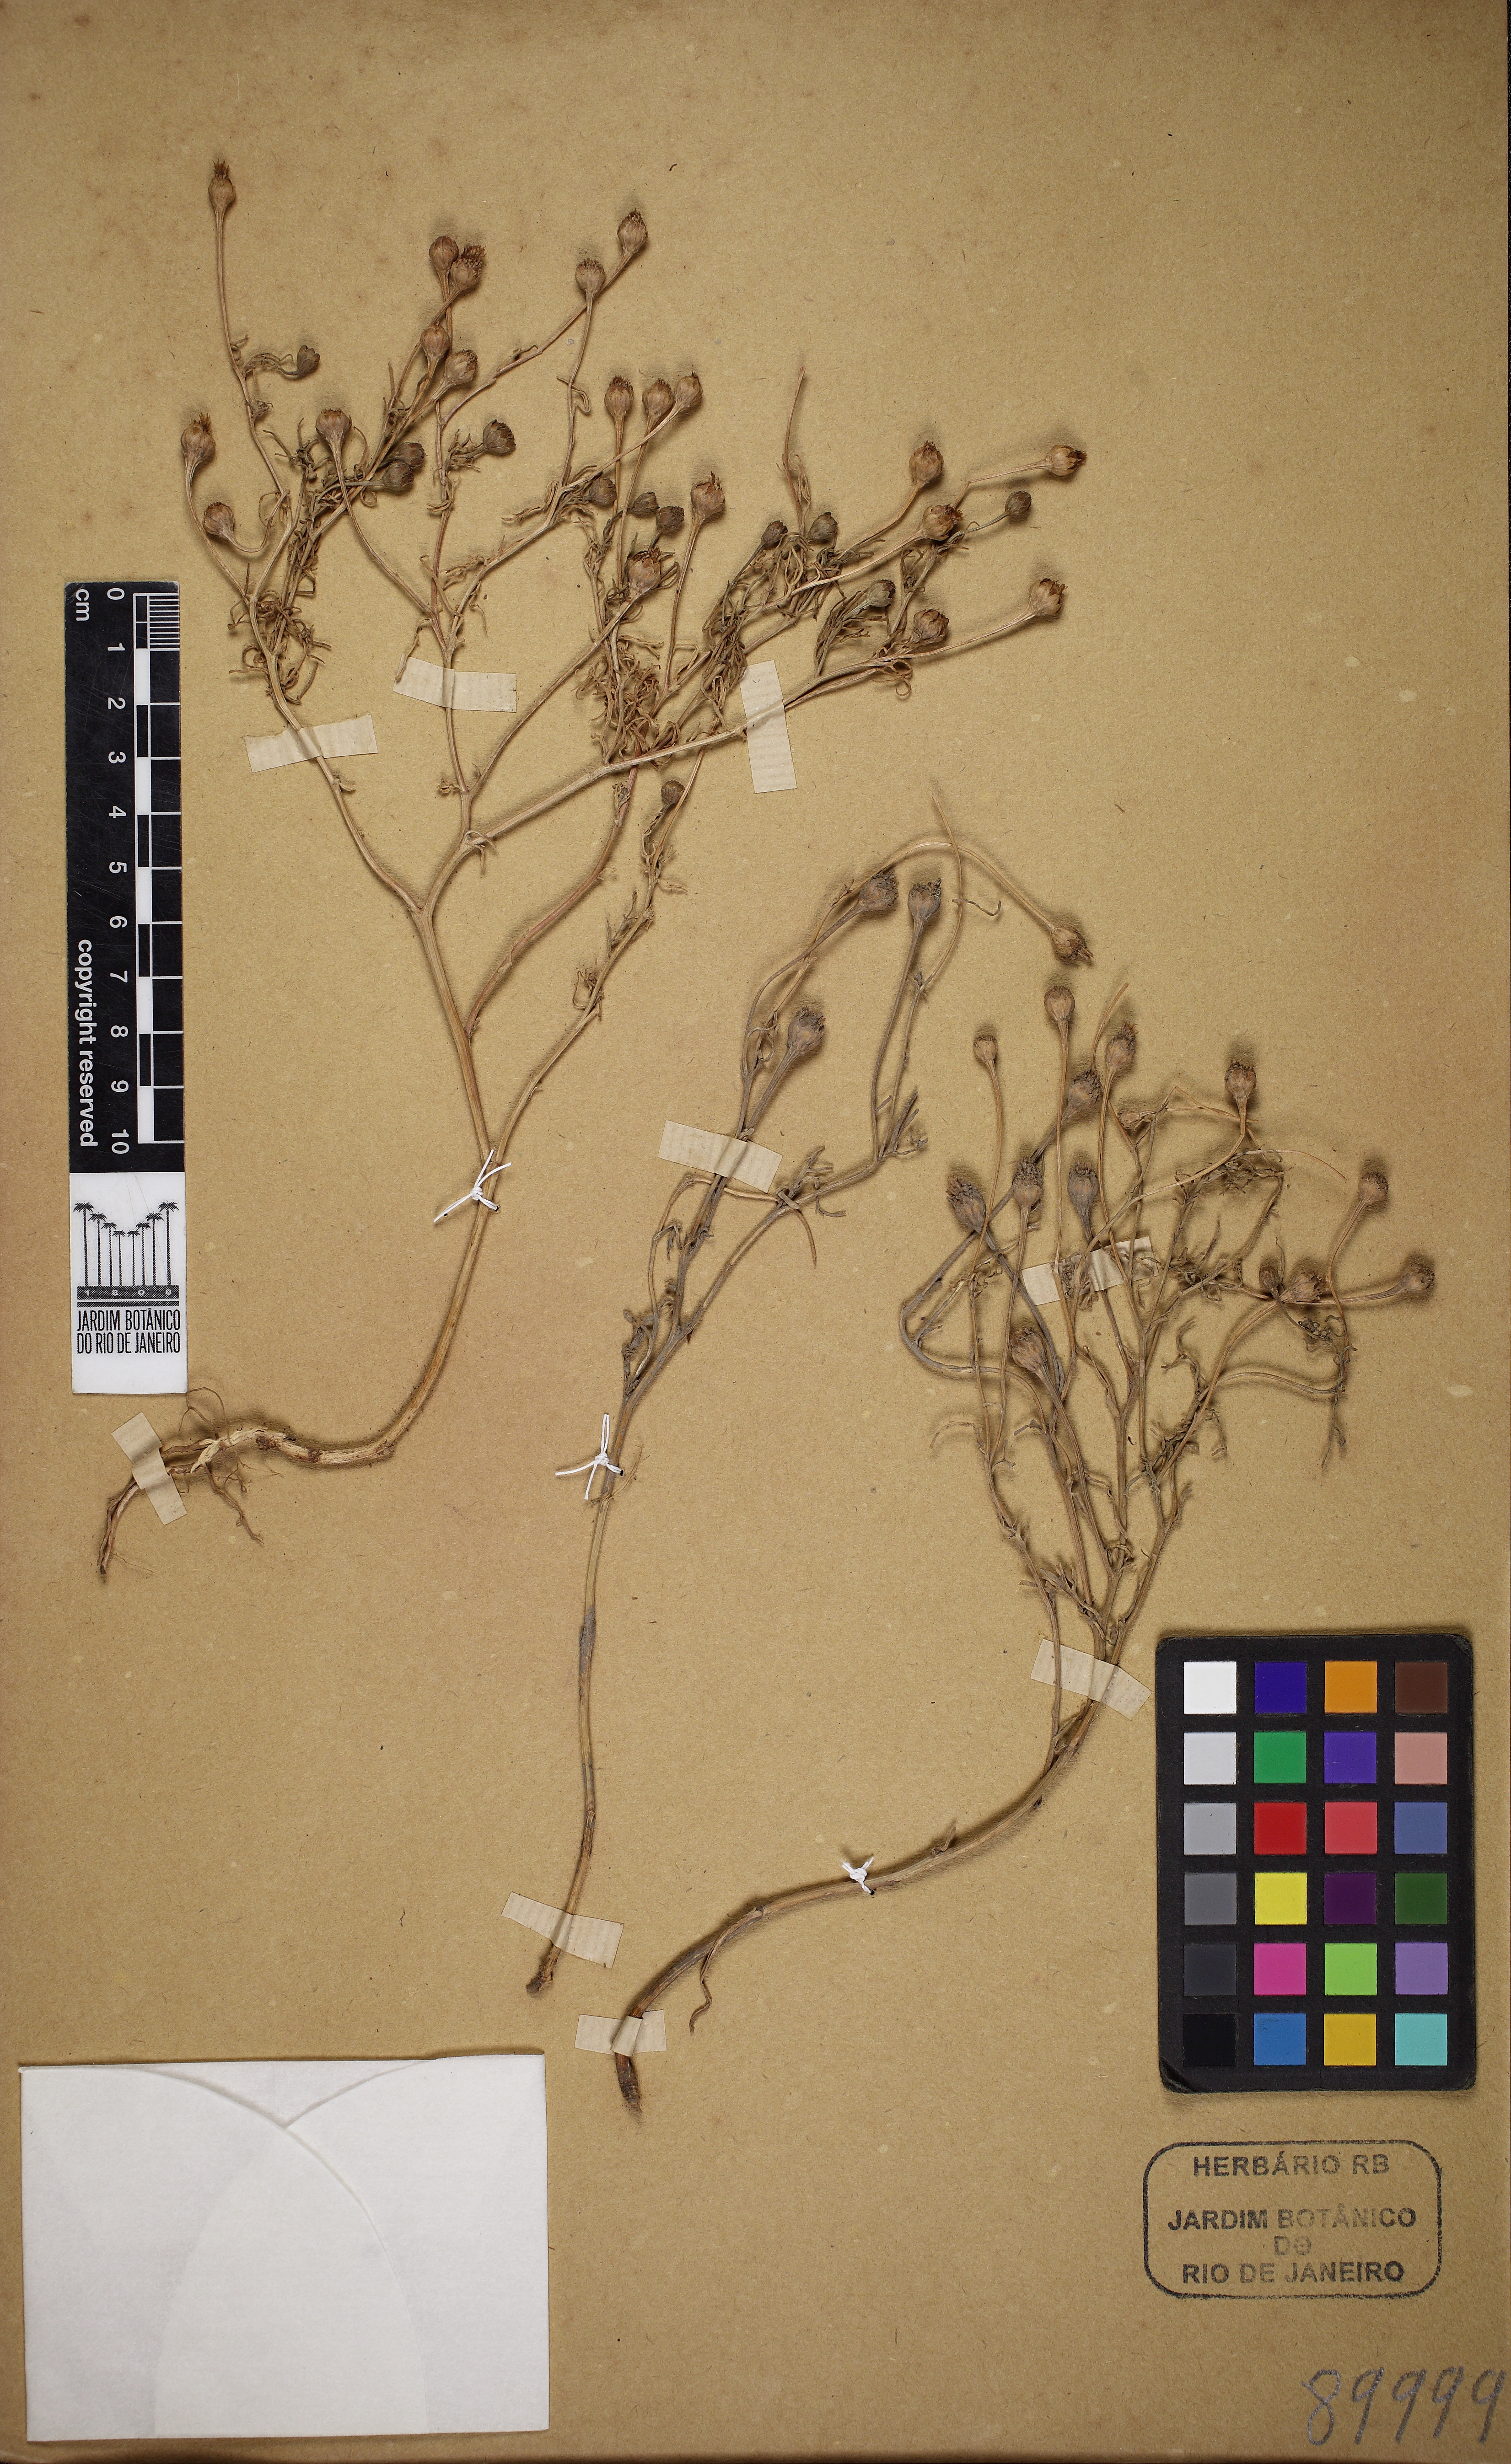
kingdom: Plantae
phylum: Tracheophyta
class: Magnoliopsida
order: Asterales
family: Asteraceae
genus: Hymenoxys
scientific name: Hymenoxys anthemoides
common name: South american rubberweed
